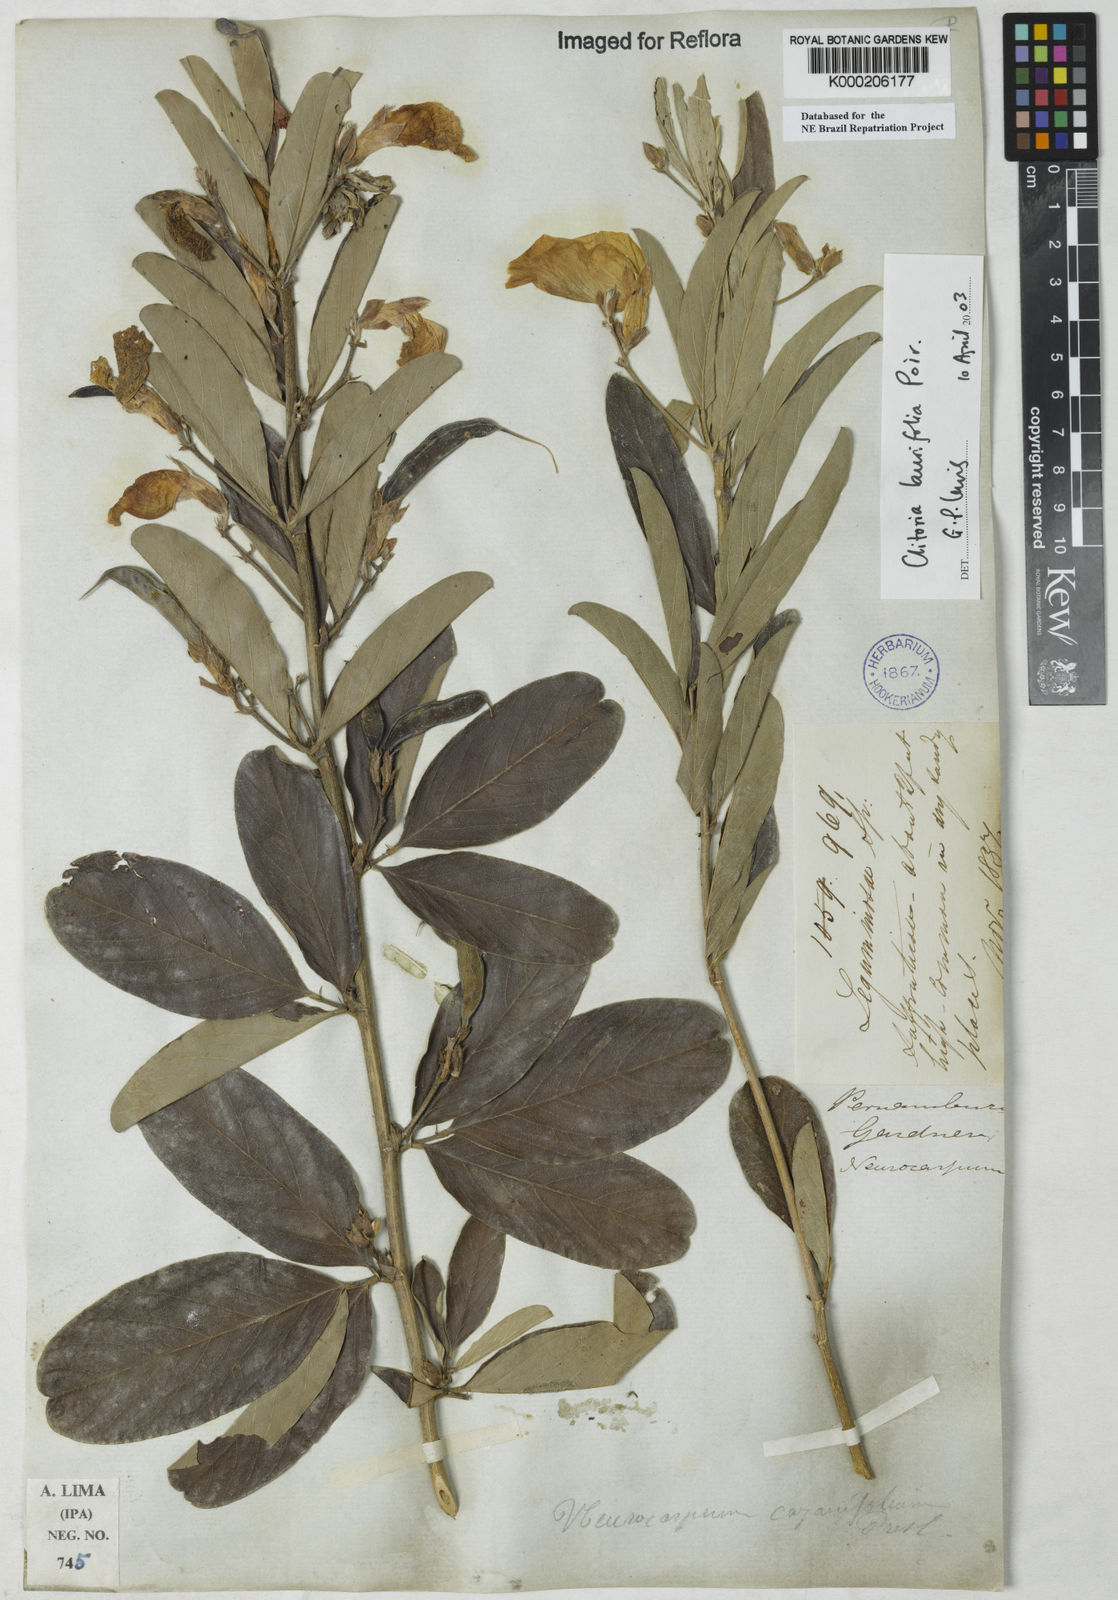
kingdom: Plantae
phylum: Tracheophyta
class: Magnoliopsida
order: Fabales
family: Fabaceae
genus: Clitoria
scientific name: Clitoria laurifolia
